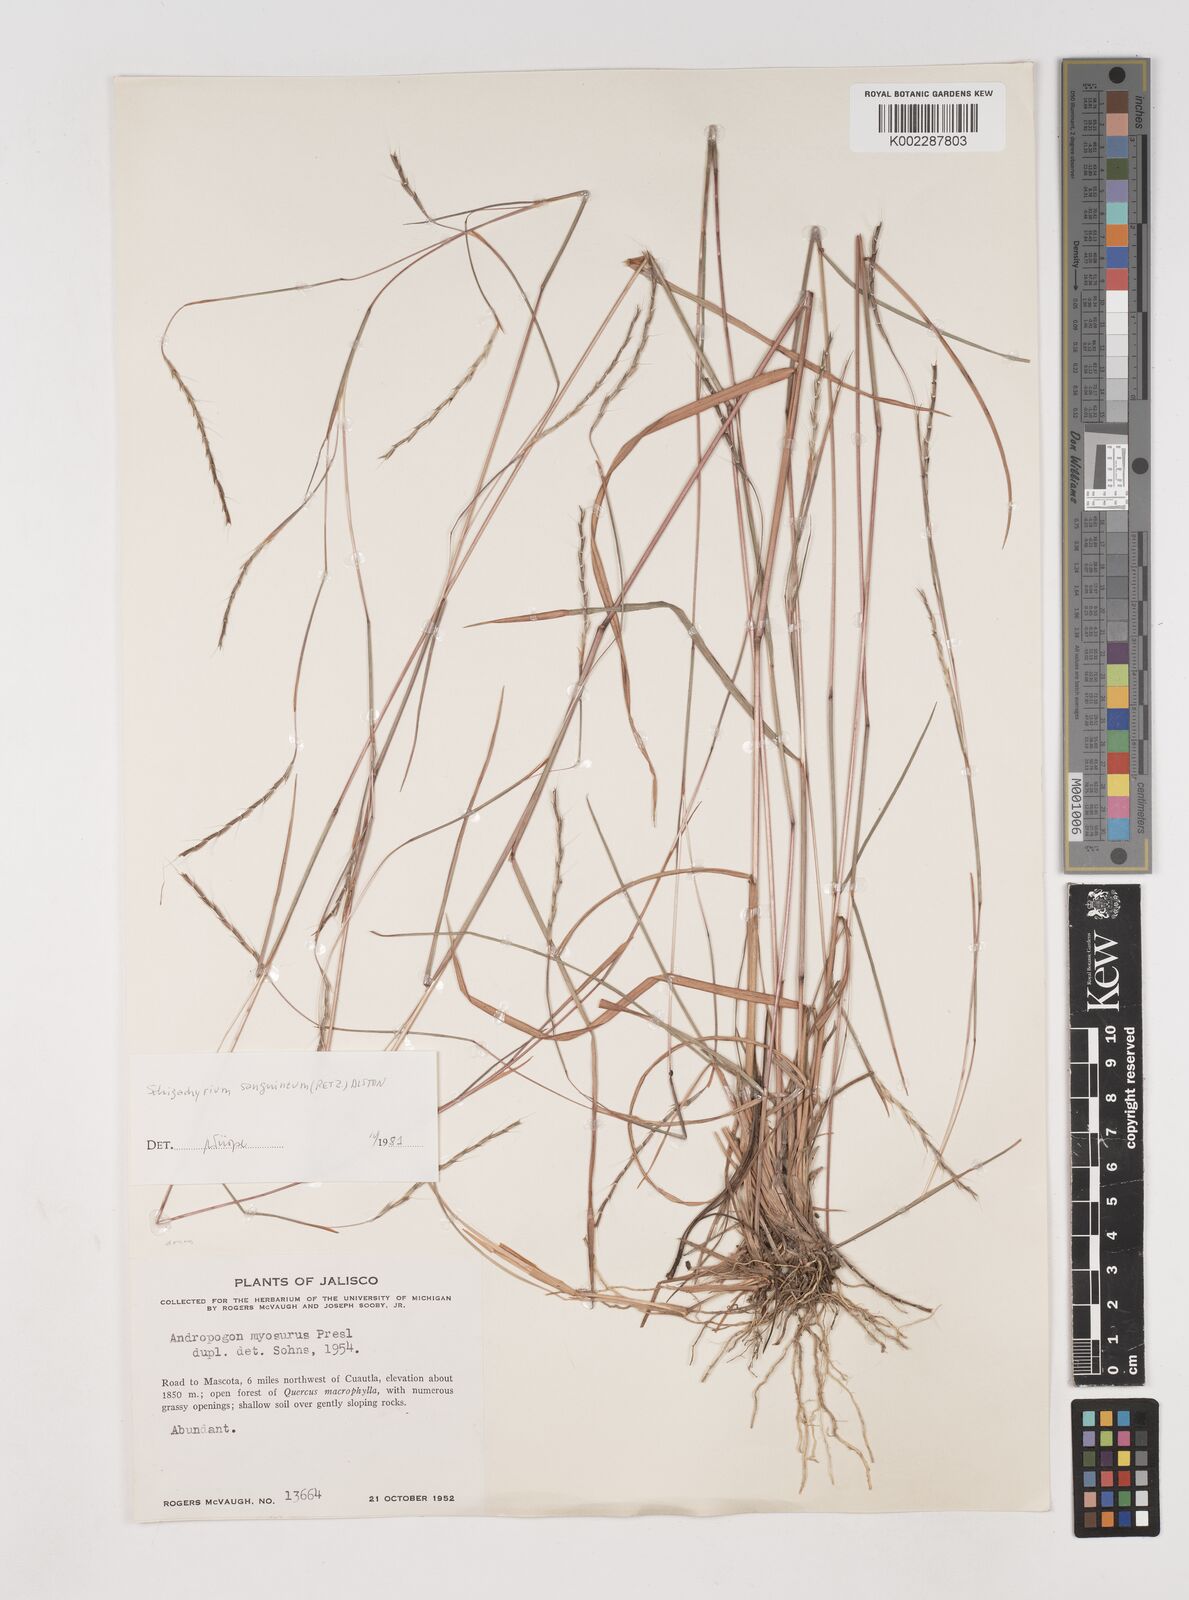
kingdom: Plantae
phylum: Tracheophyta
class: Liliopsida
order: Poales
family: Poaceae
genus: Schizachyrium
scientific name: Schizachyrium sanguineum
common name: Crimson bluestem
